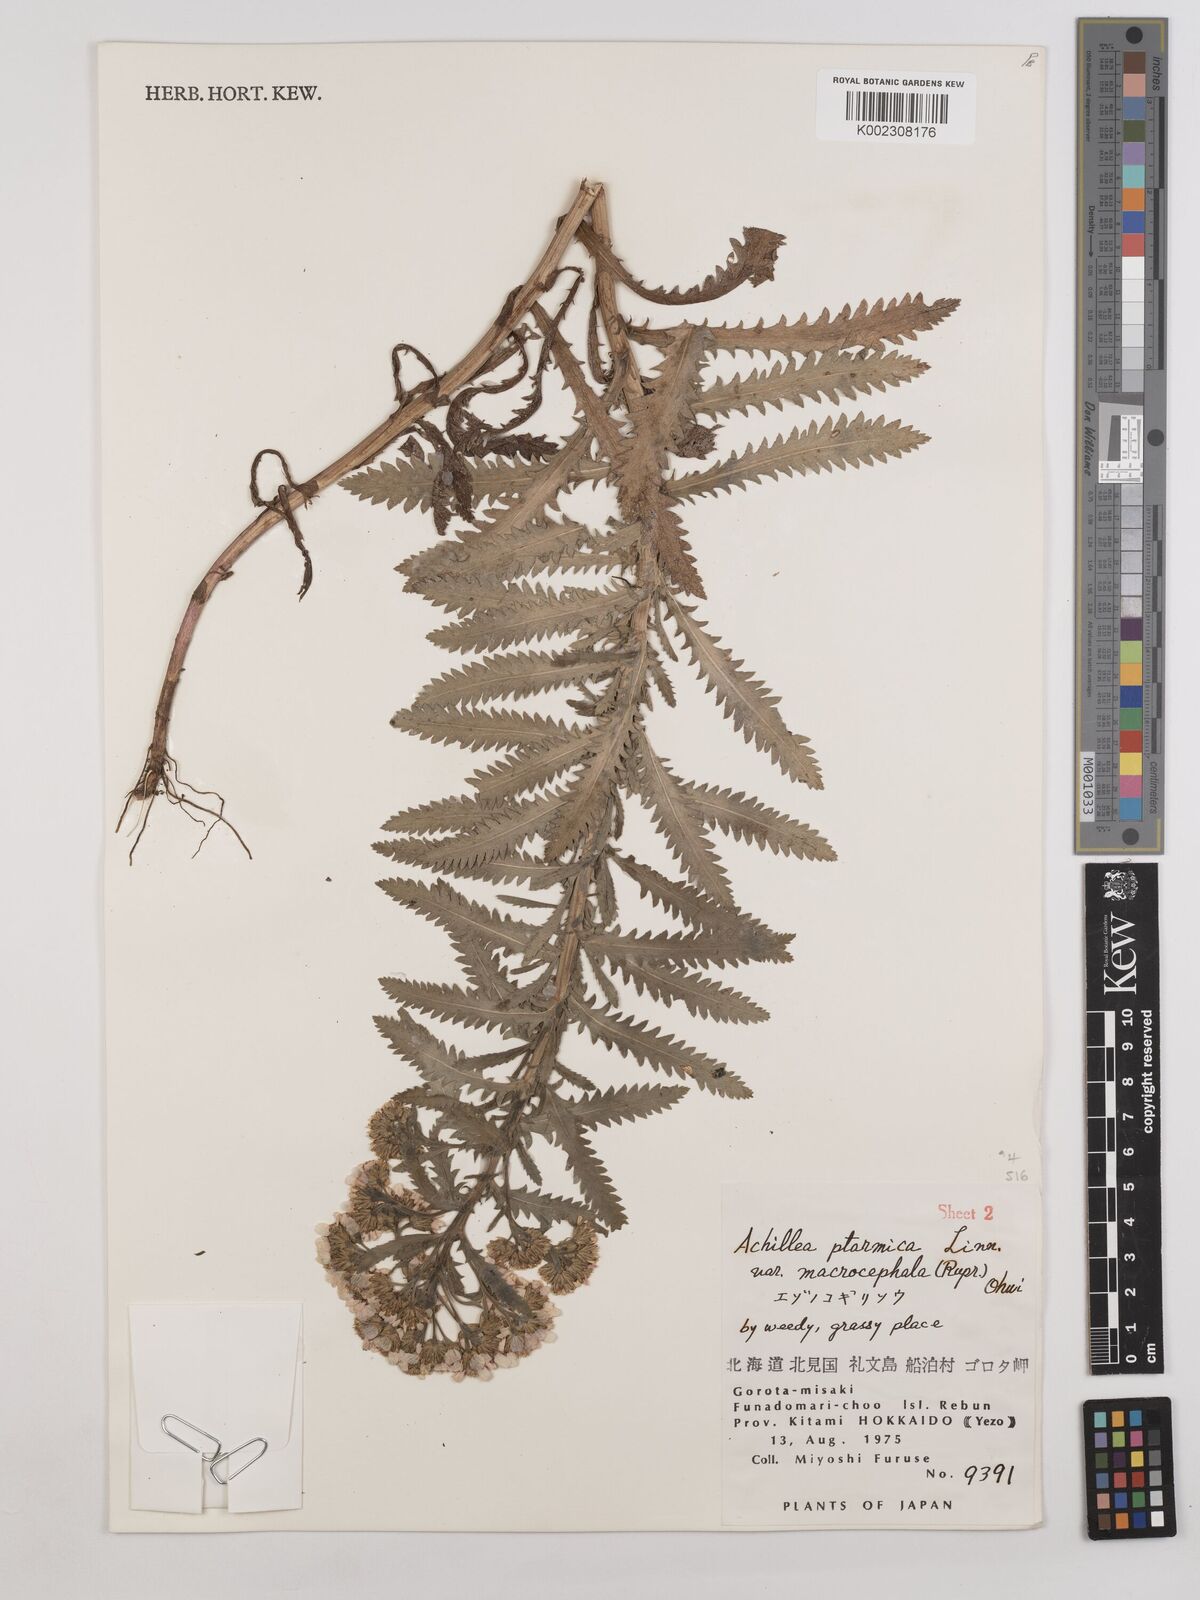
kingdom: Plantae
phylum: Tracheophyta
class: Magnoliopsida
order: Asterales
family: Asteraceae
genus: Achillea
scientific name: Achillea ptarmicoides
